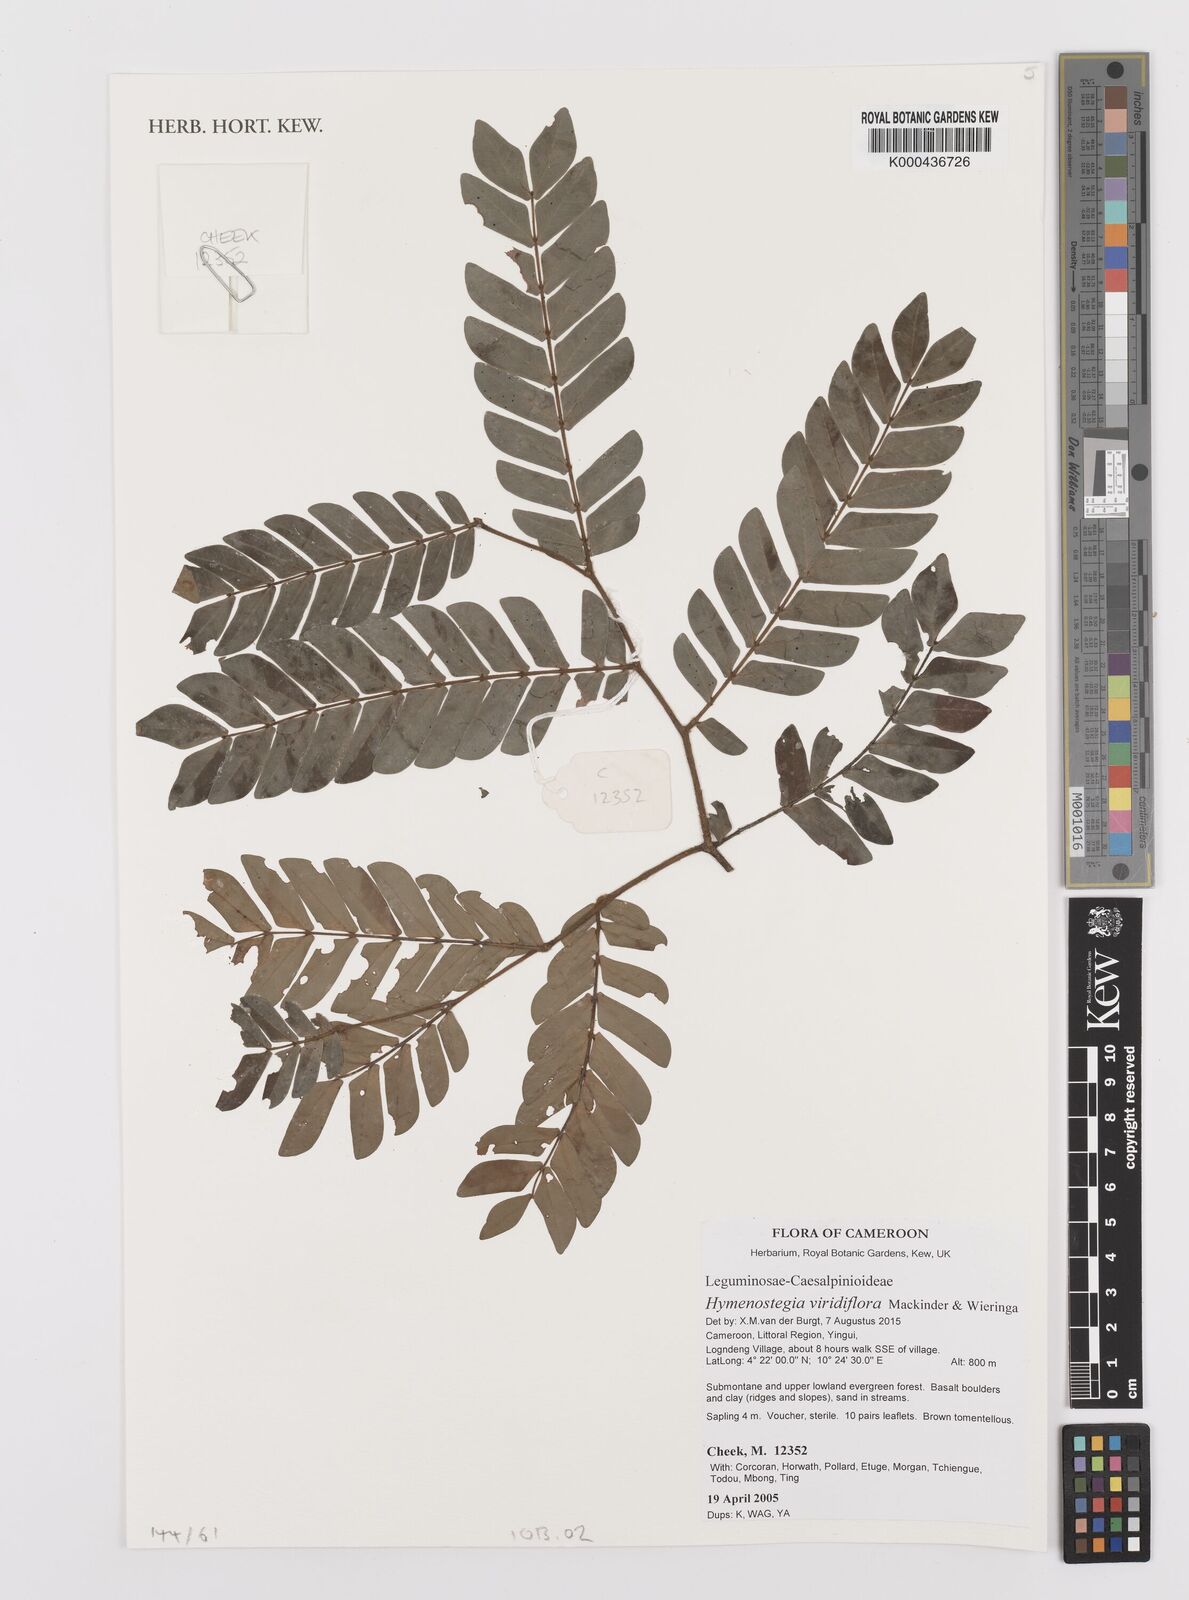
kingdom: Plantae
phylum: Tracheophyta
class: Magnoliopsida
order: Fabales
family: Fabaceae
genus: Hymenostegia
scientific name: Hymenostegia
